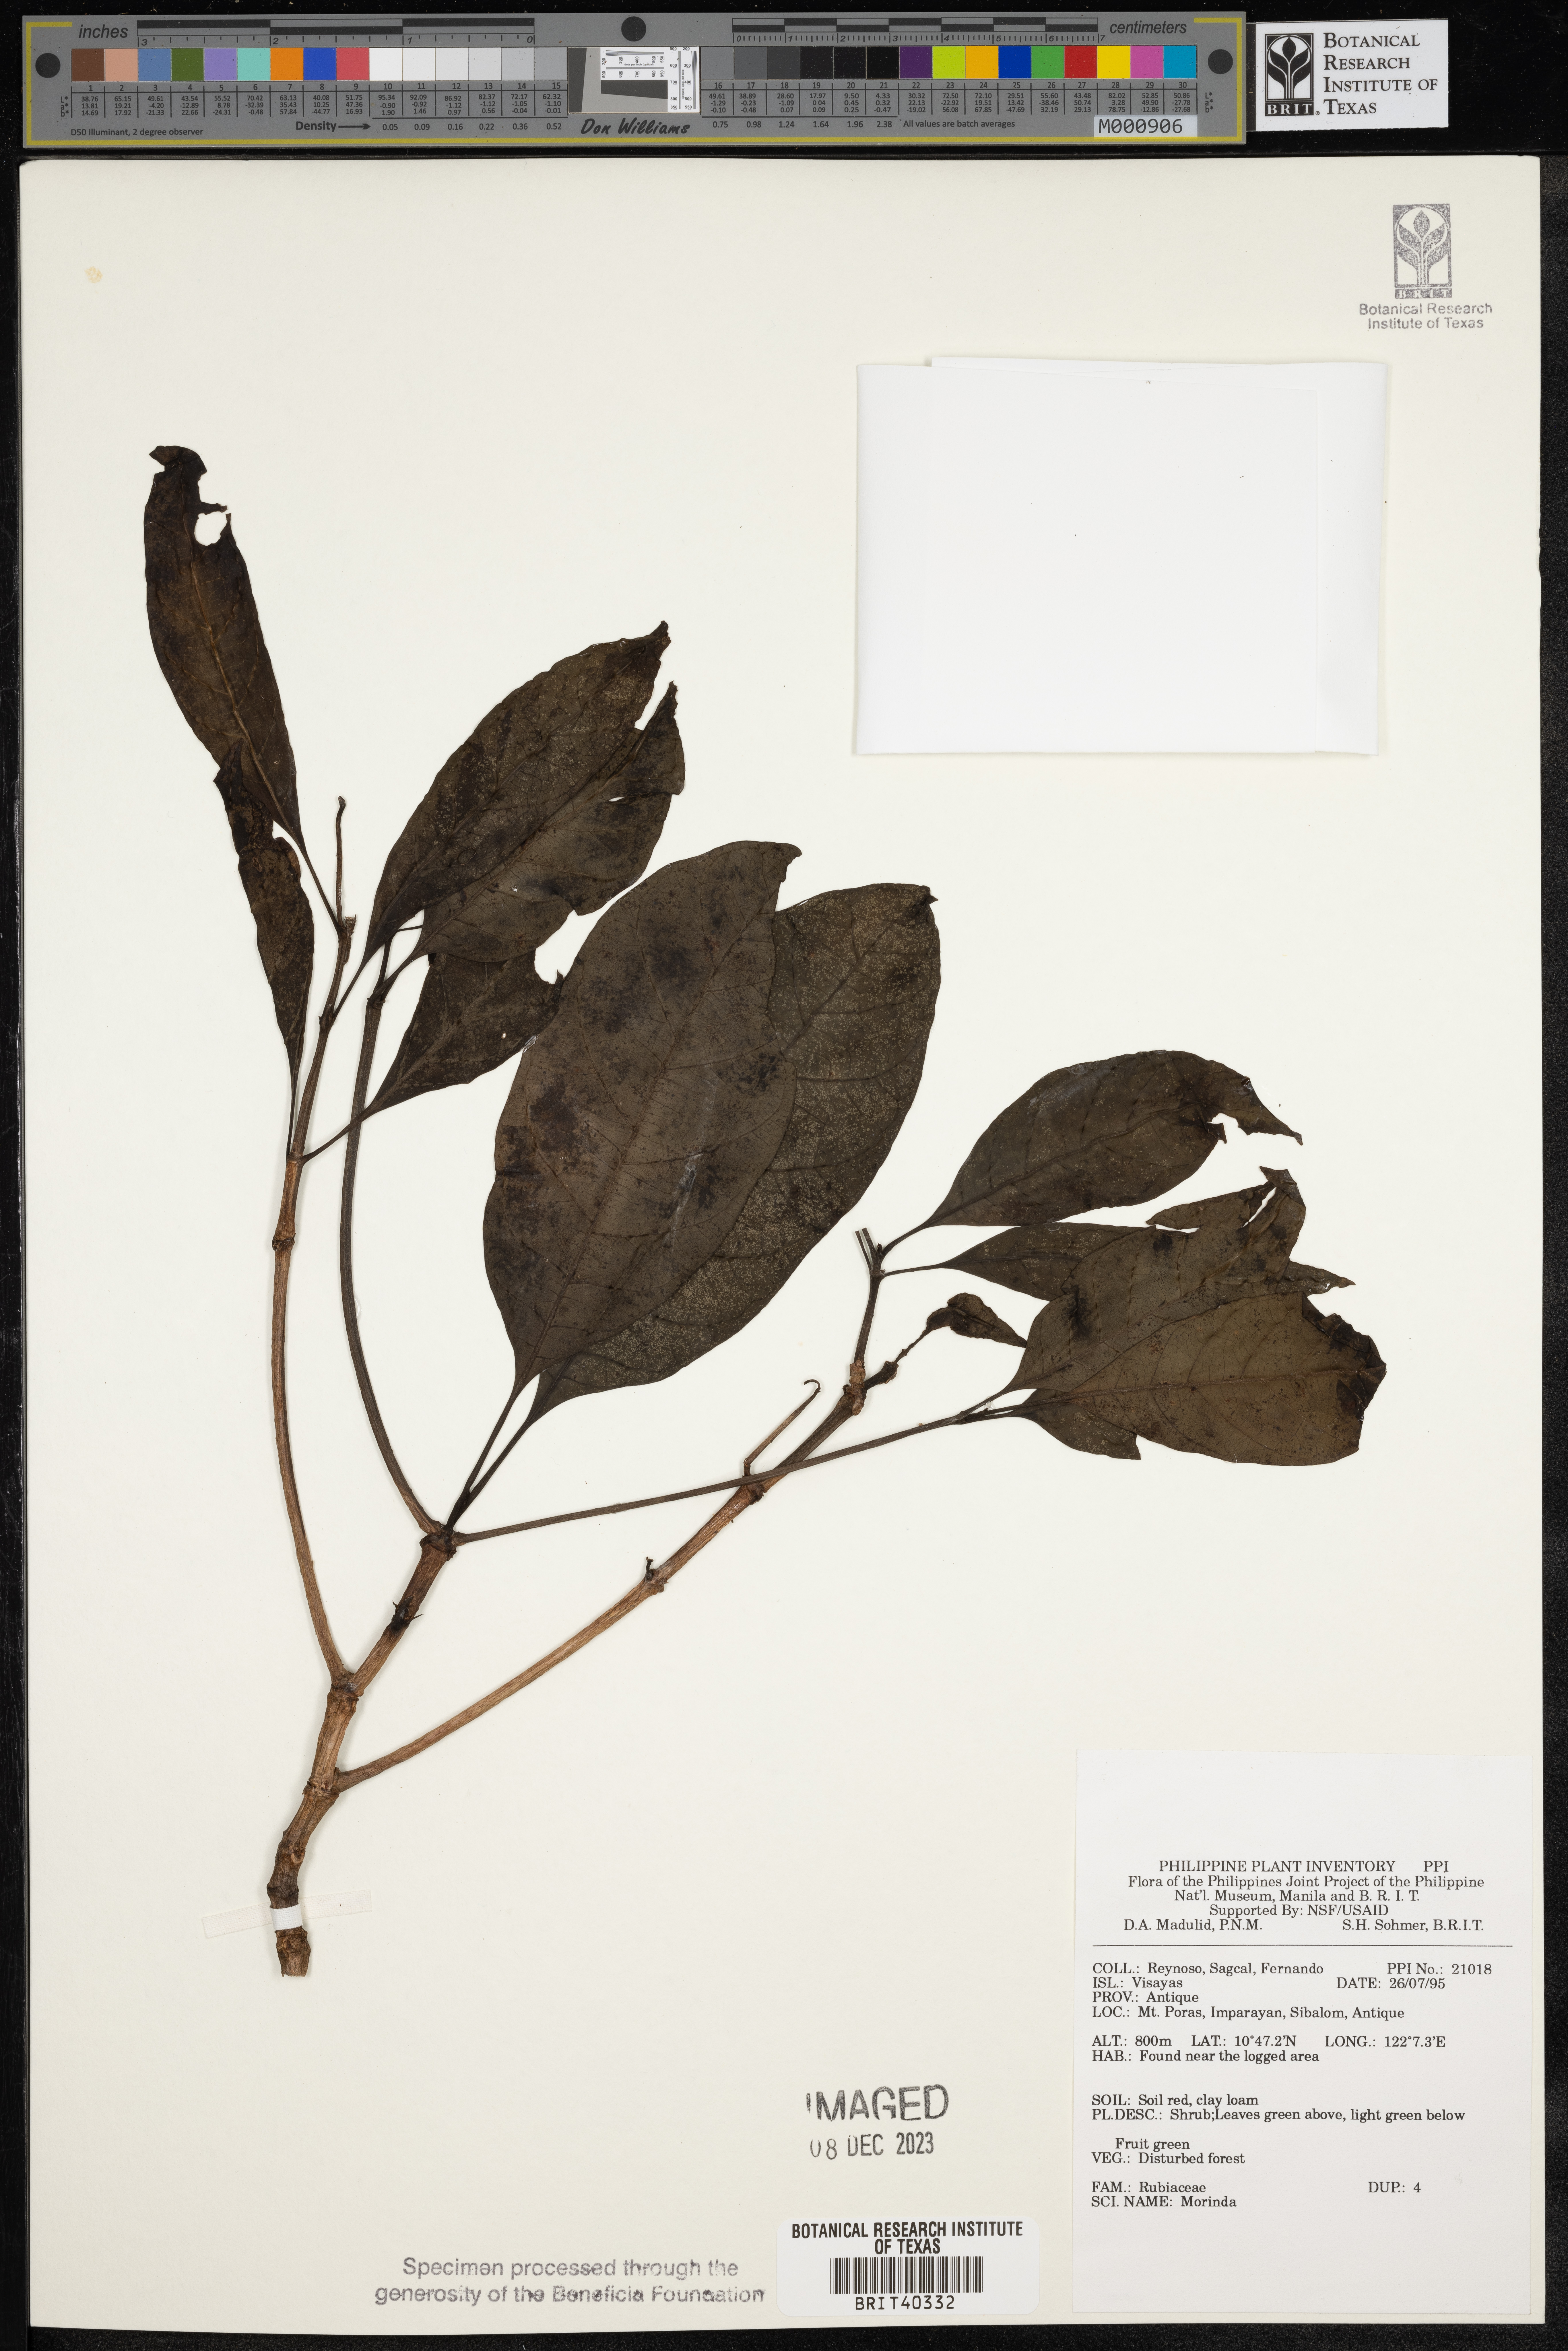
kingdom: Plantae
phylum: Tracheophyta
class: Magnoliopsida
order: Gentianales
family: Rubiaceae
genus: Morinda
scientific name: Morinda
